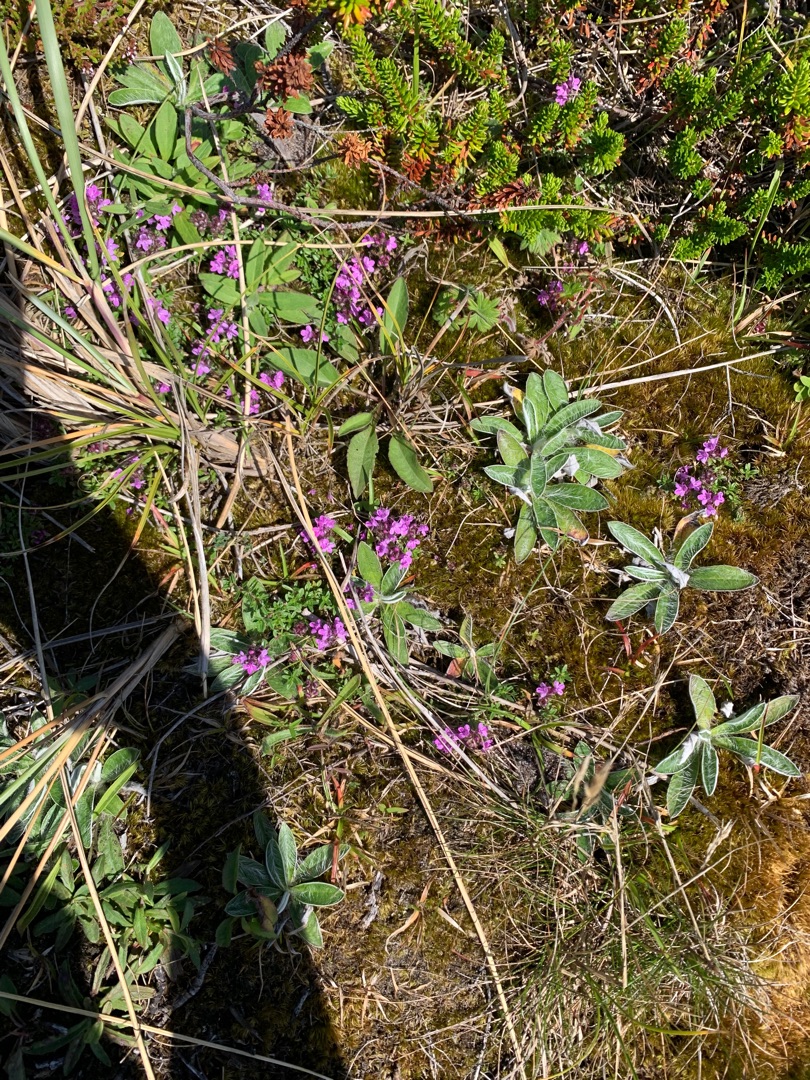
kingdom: Plantae
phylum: Tracheophyta
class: Magnoliopsida
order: Lamiales
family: Lamiaceae
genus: Thymus
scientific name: Thymus serpyllum
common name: Smalbladet timian
